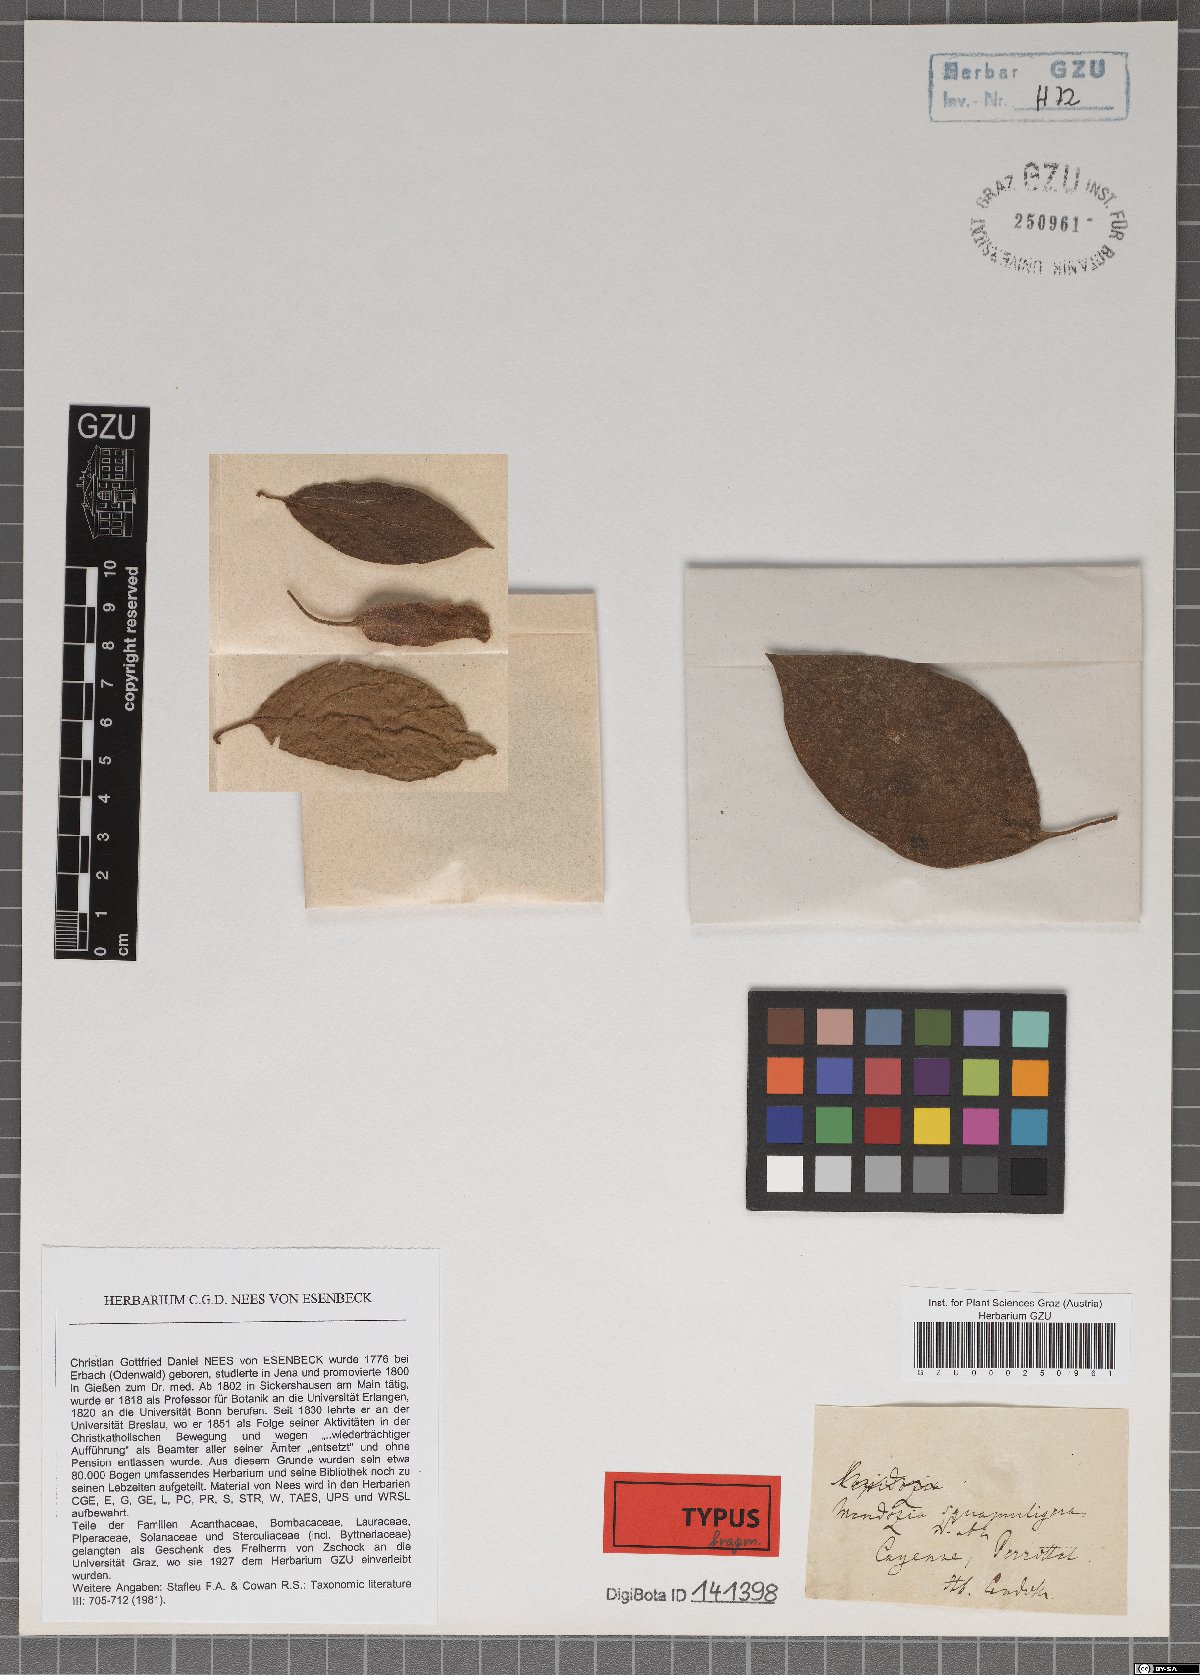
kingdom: Plantae
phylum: Tracheophyta
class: Magnoliopsida
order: Lamiales
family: Acanthaceae
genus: Mendoncia
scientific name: Mendoncia squamuligera
